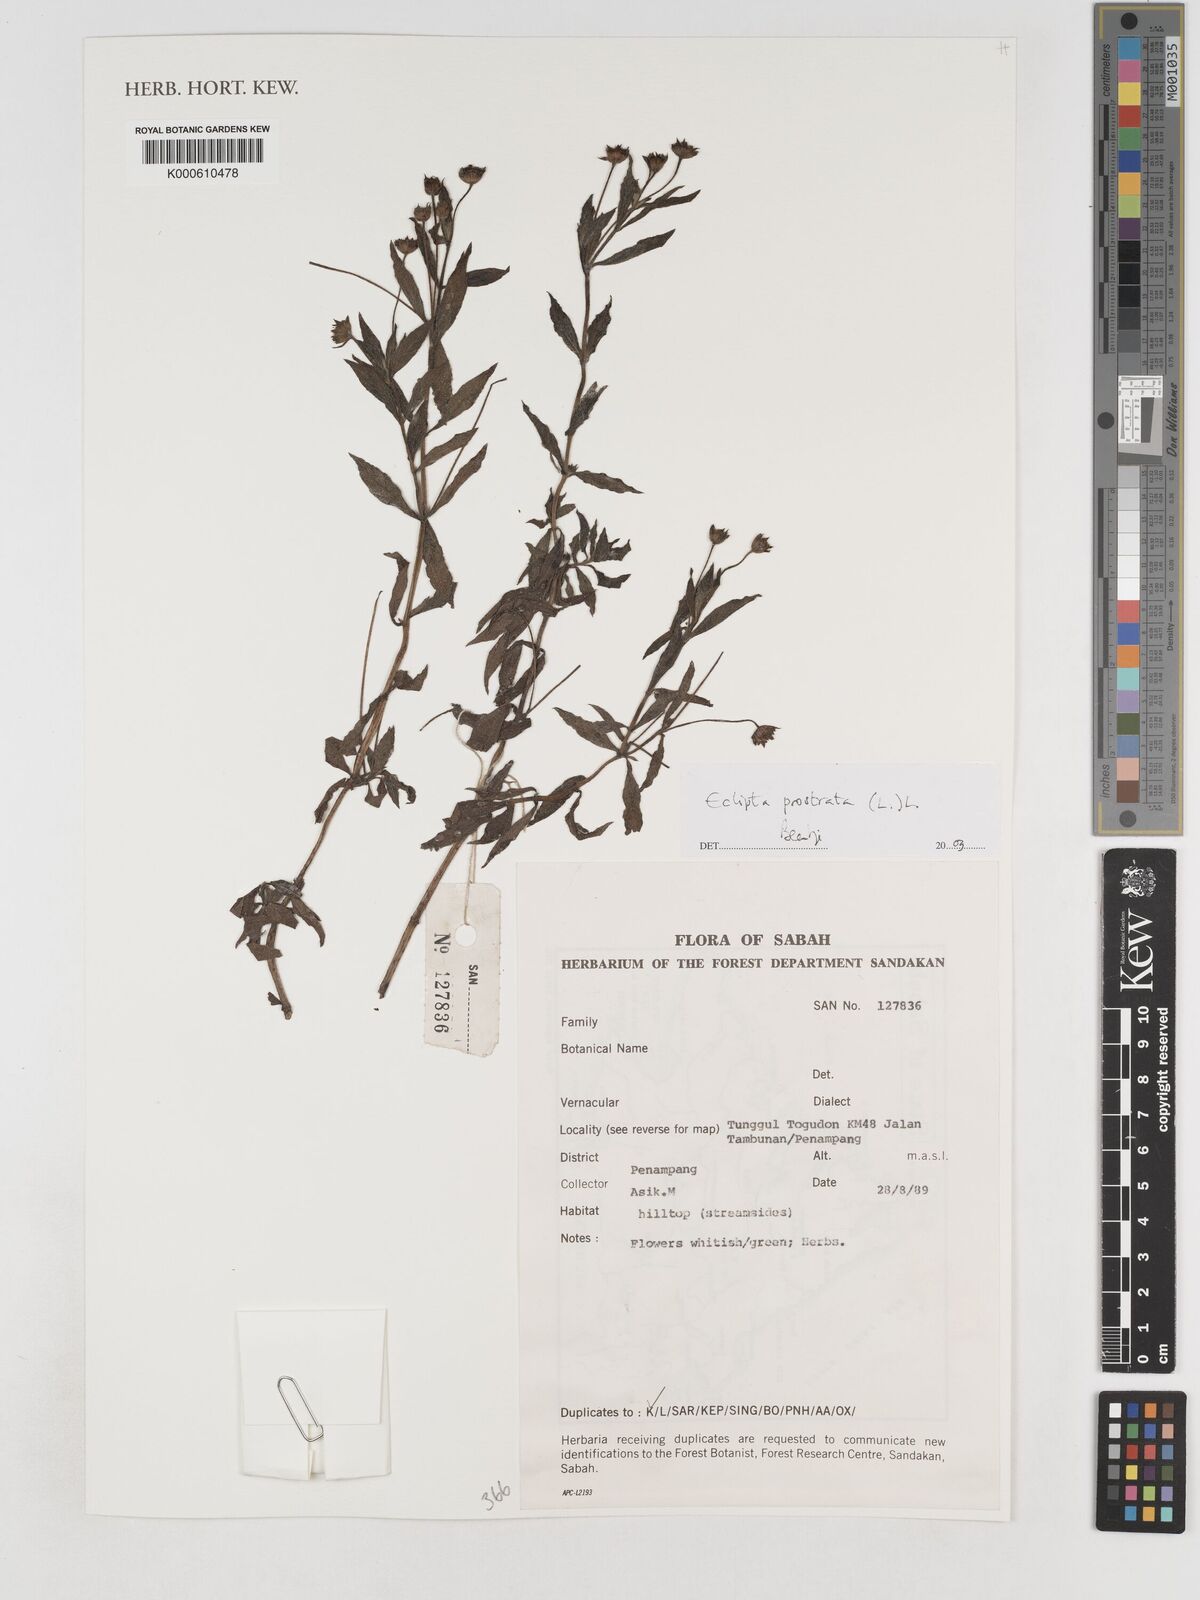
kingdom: Plantae
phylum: Tracheophyta
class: Magnoliopsida
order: Asterales
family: Asteraceae
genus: Eclipta
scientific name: Eclipta prostrata
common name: False daisy
